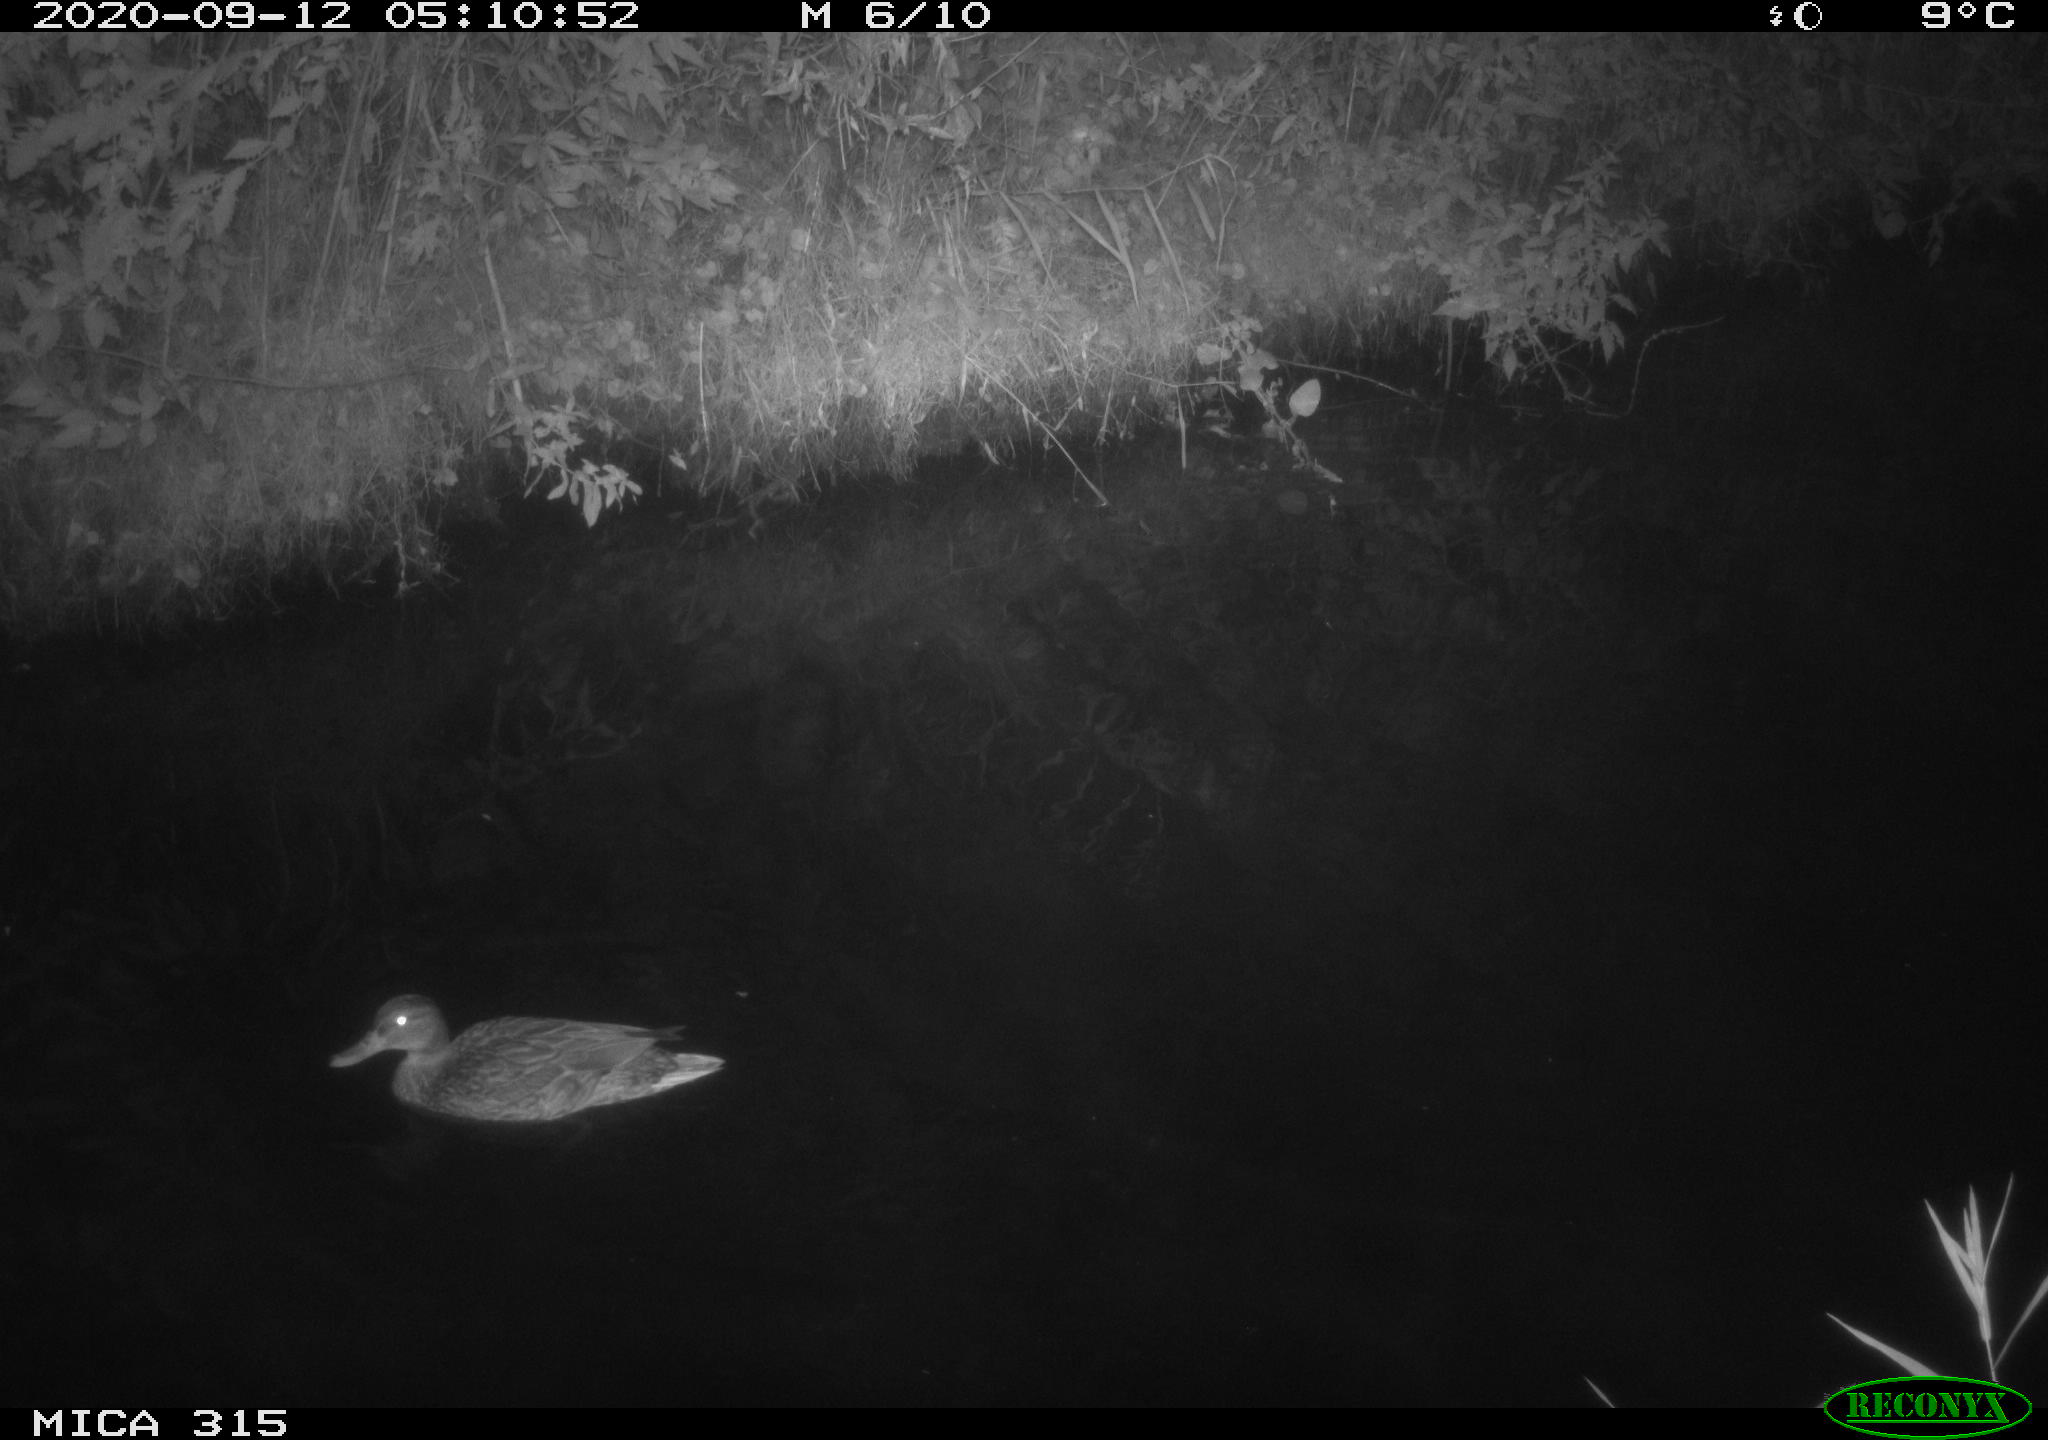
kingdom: Animalia
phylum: Chordata
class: Aves
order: Anseriformes
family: Anatidae
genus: Anas
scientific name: Anas platyrhynchos
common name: Mallard
